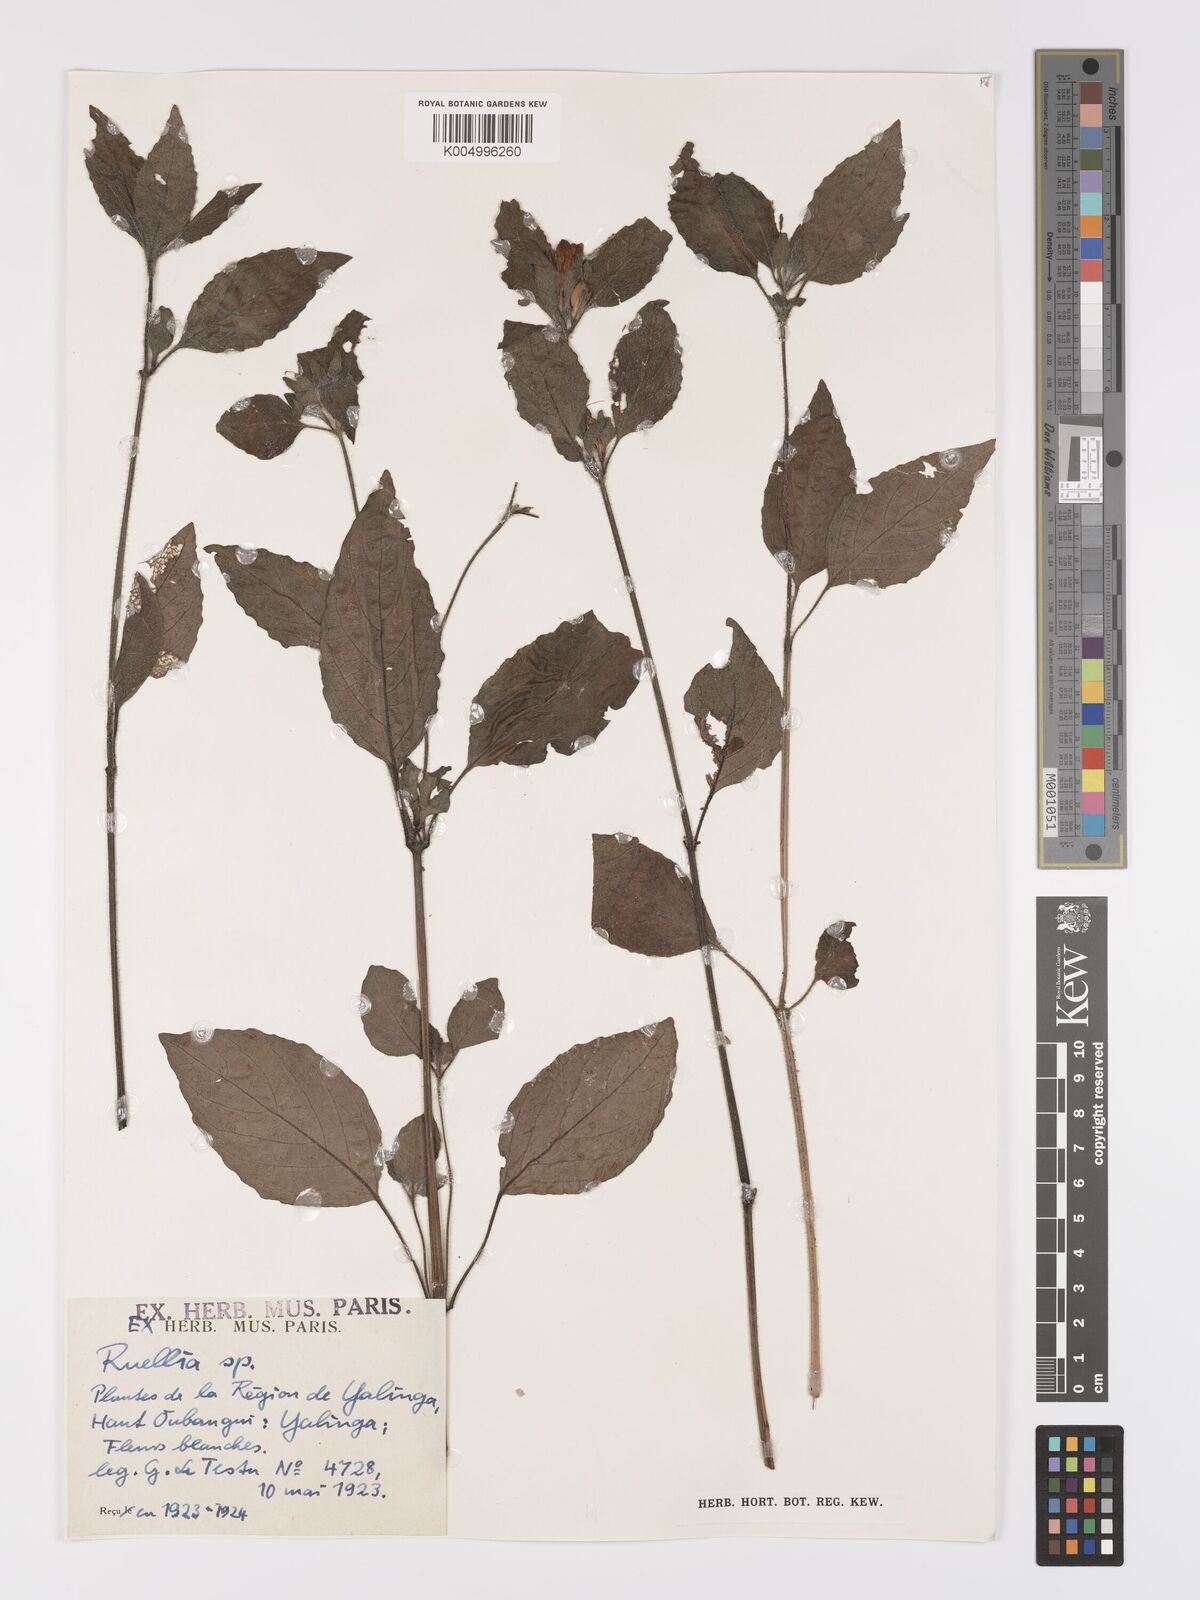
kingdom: Plantae
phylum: Tracheophyta
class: Magnoliopsida
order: Lamiales
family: Acanthaceae
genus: Ruellia
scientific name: Ruellia praetermissa
